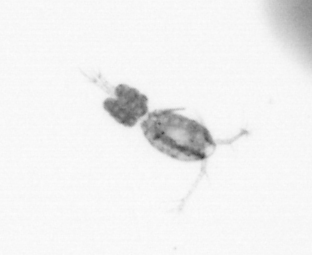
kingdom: Animalia
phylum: Arthropoda
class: Copepoda
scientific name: Copepoda
